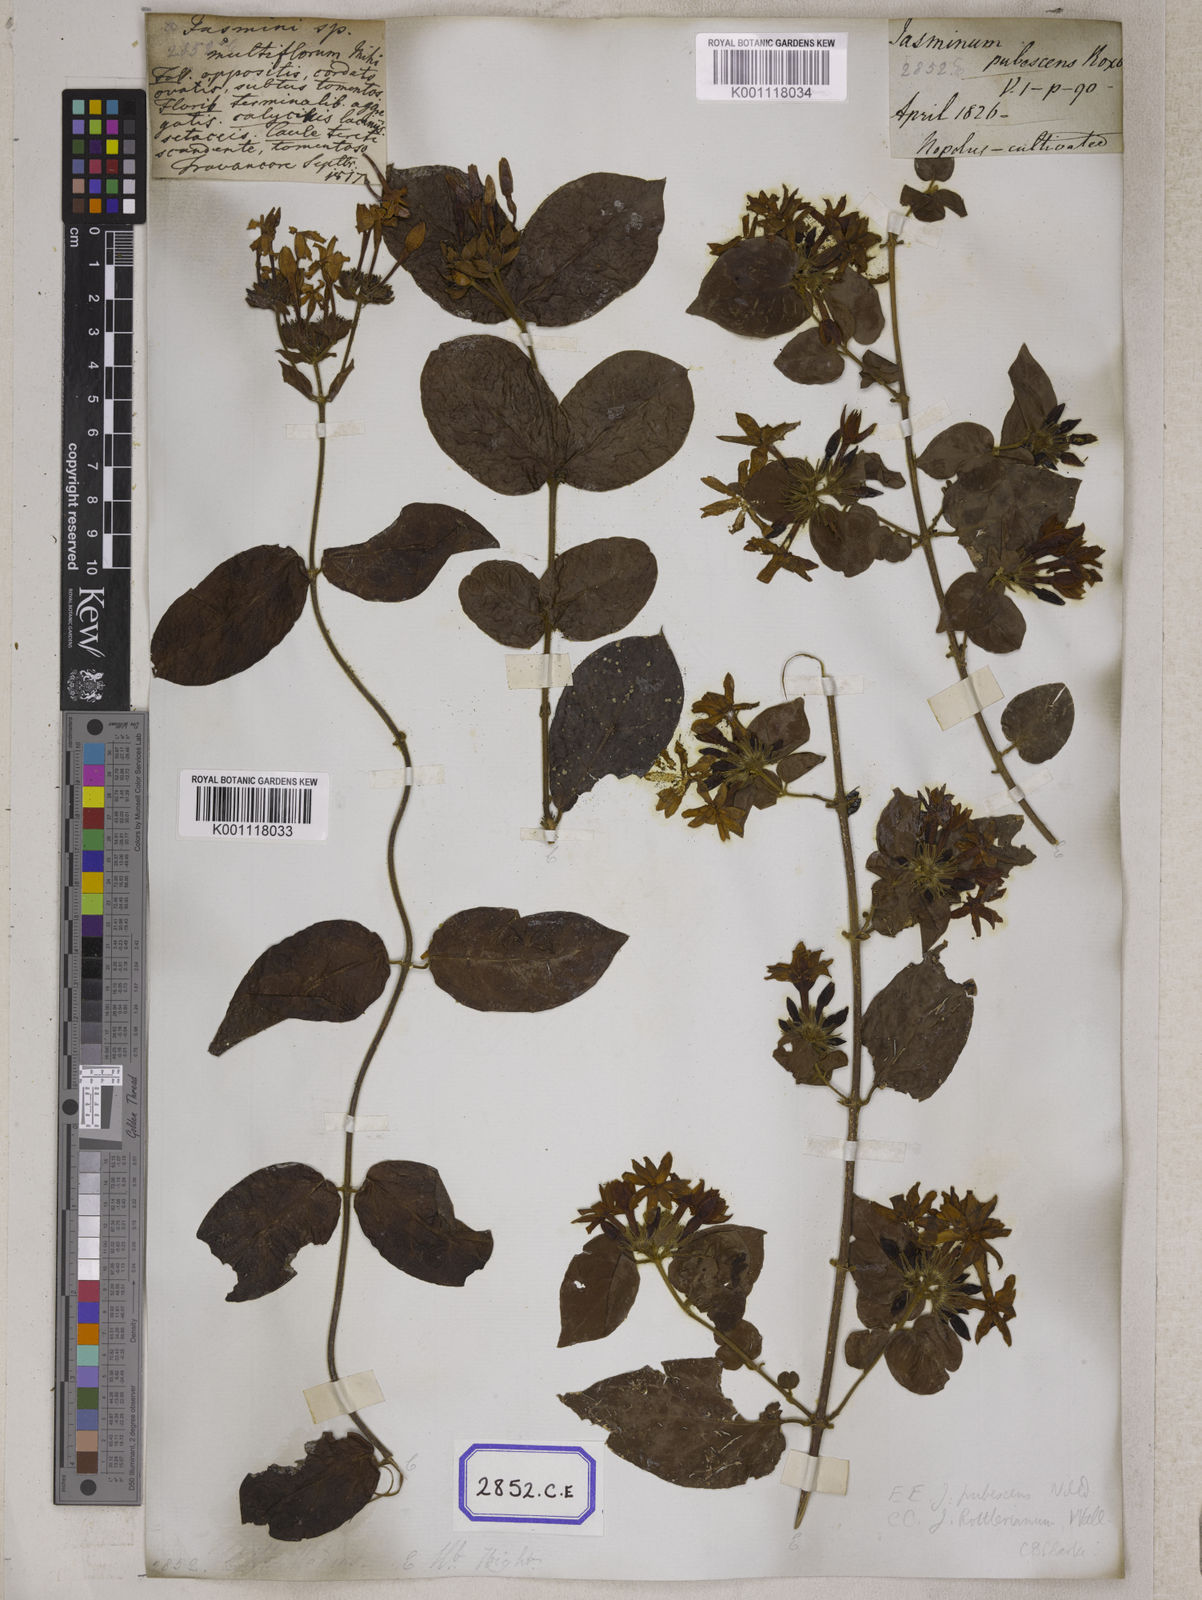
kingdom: Plantae
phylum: Tracheophyta
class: Magnoliopsida
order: Gentianales
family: Rubiaceae
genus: Guettarda
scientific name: Guettarda speciosa
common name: Sea randa
